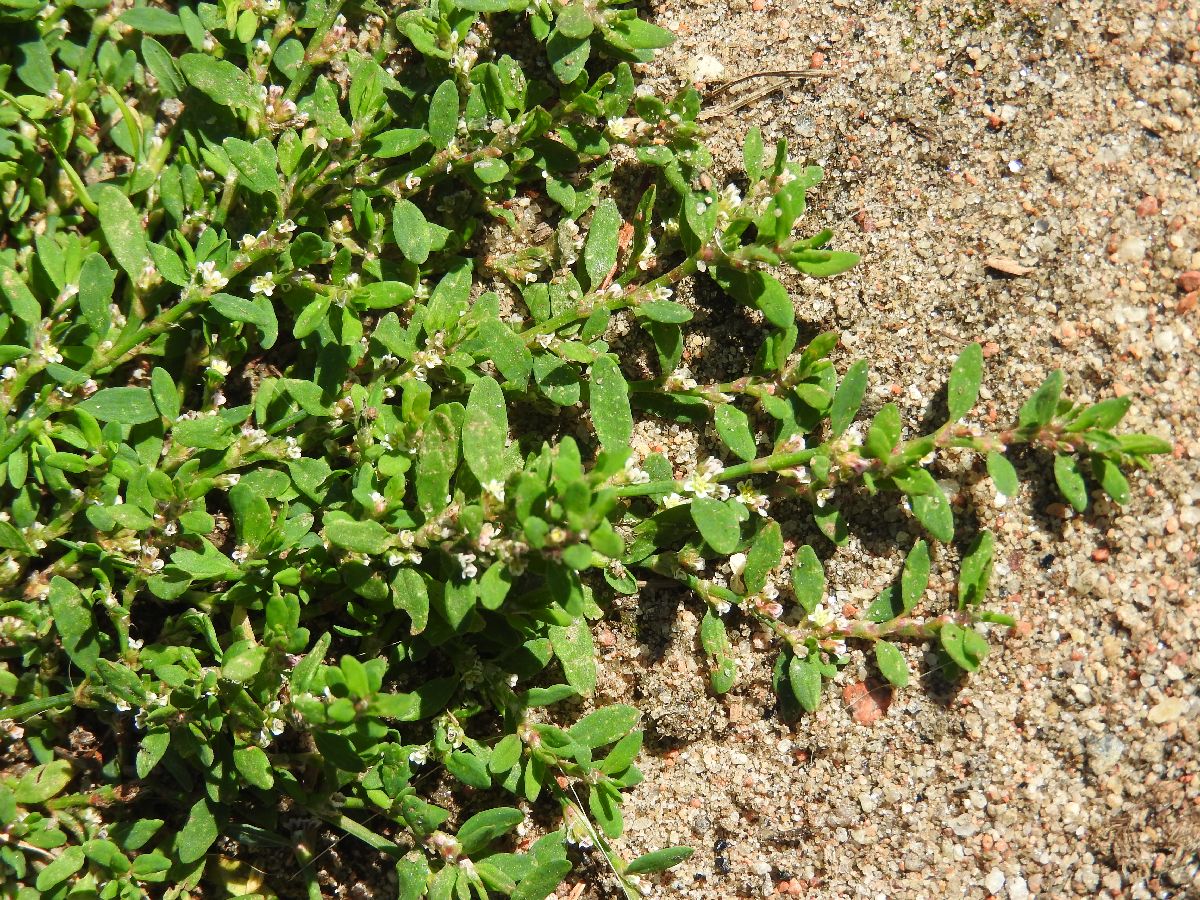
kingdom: Plantae
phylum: Tracheophyta
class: Magnoliopsida
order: Caryophyllales
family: Polygonaceae
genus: Polygonum
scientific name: Polygonum aviculare
